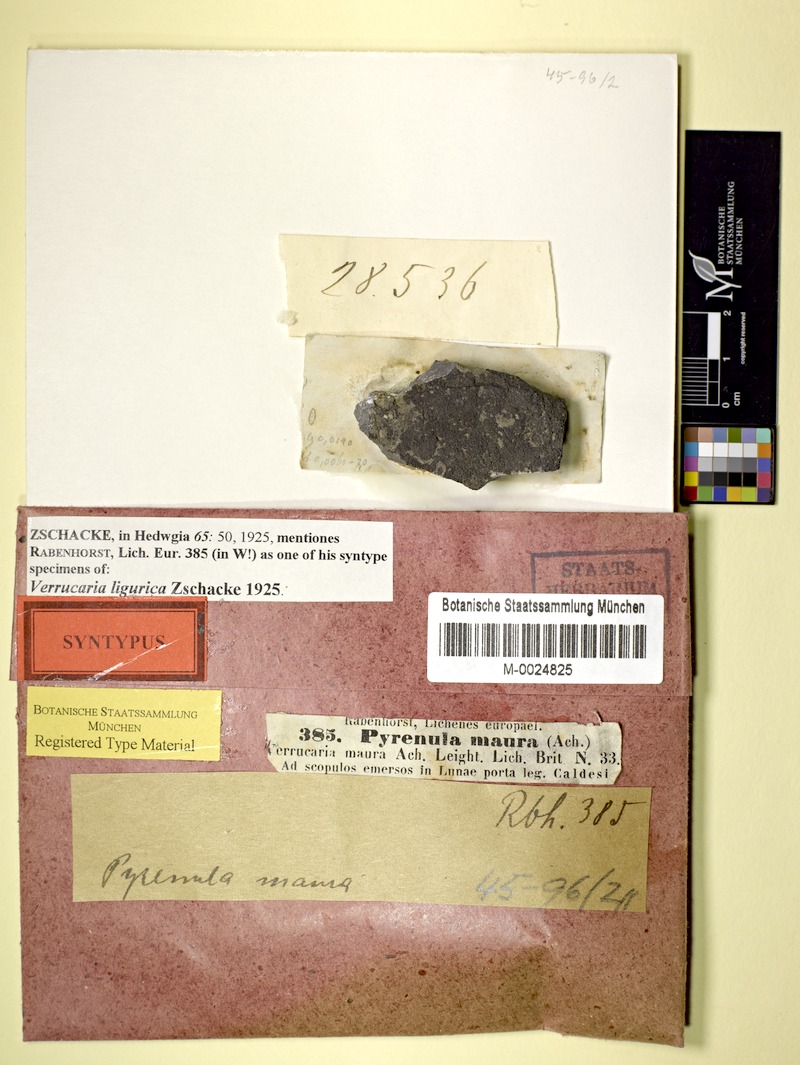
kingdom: Fungi
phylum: Ascomycota
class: Eurotiomycetes
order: Verrucariales
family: Verrucariaceae
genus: Verrucaria
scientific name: Verrucaria ligurica
